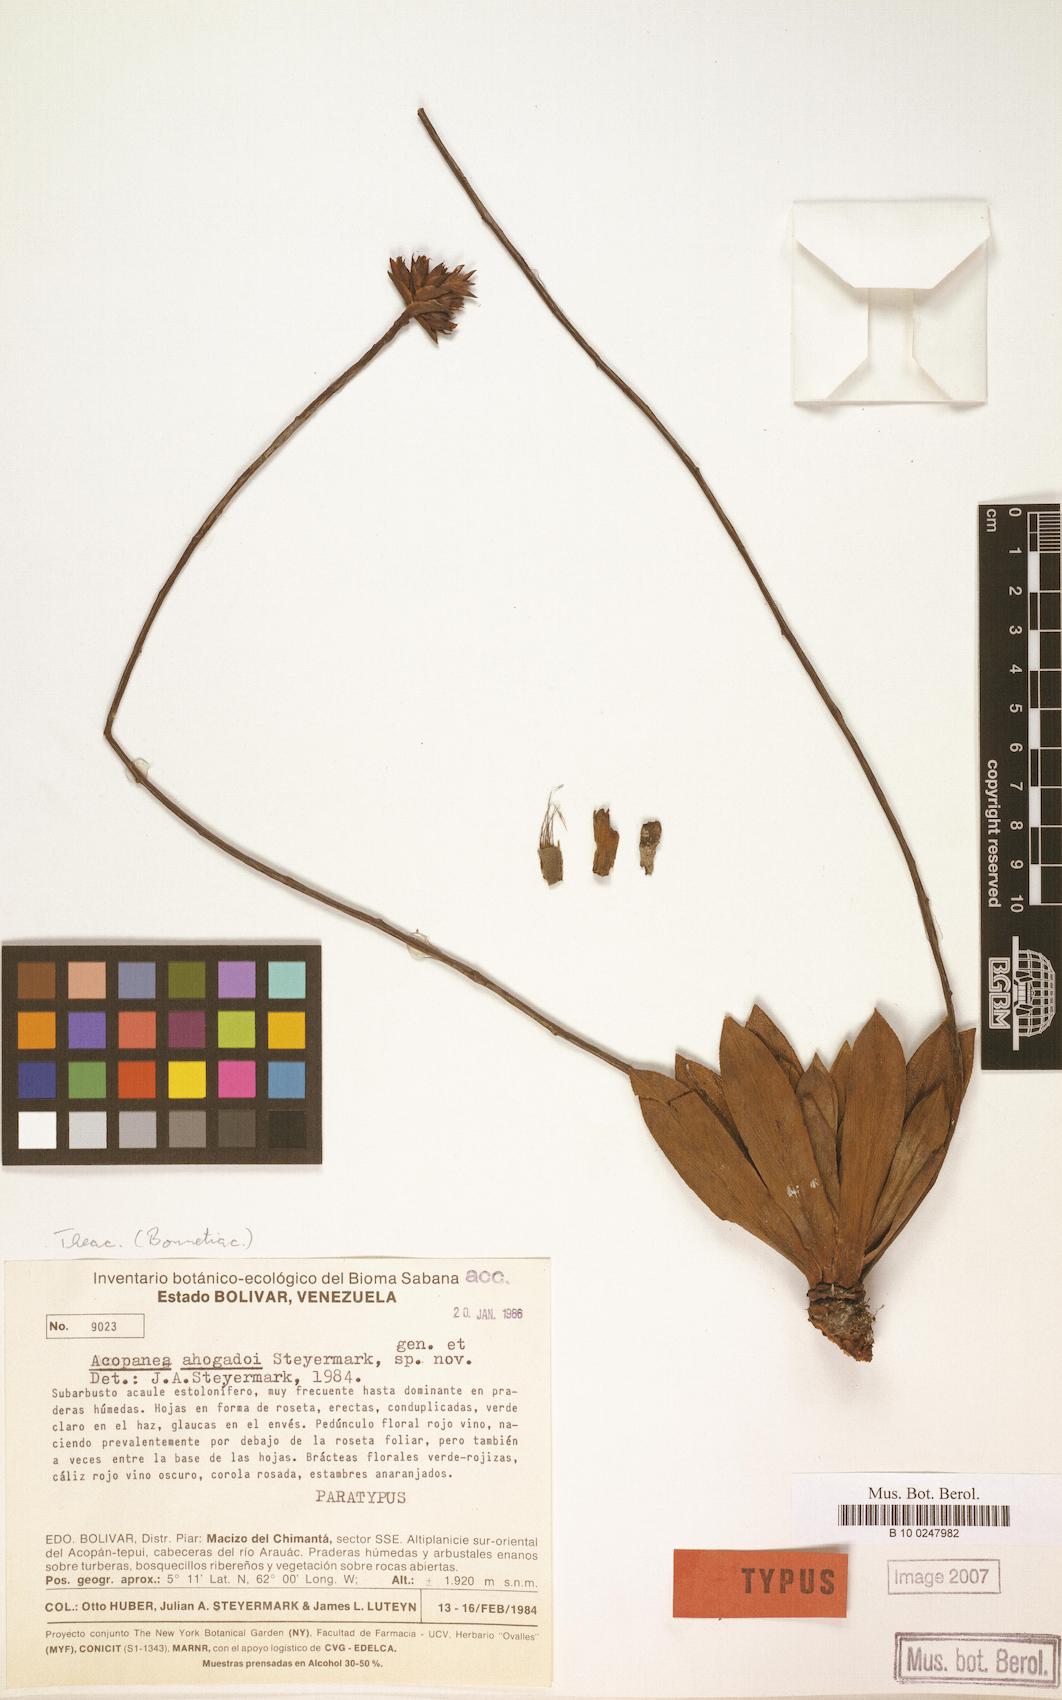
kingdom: Plantae
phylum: Tracheophyta
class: Magnoliopsida
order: Malpighiales
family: Bonnetiaceae
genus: Bonnetia
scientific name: Bonnetia ahogadoi
